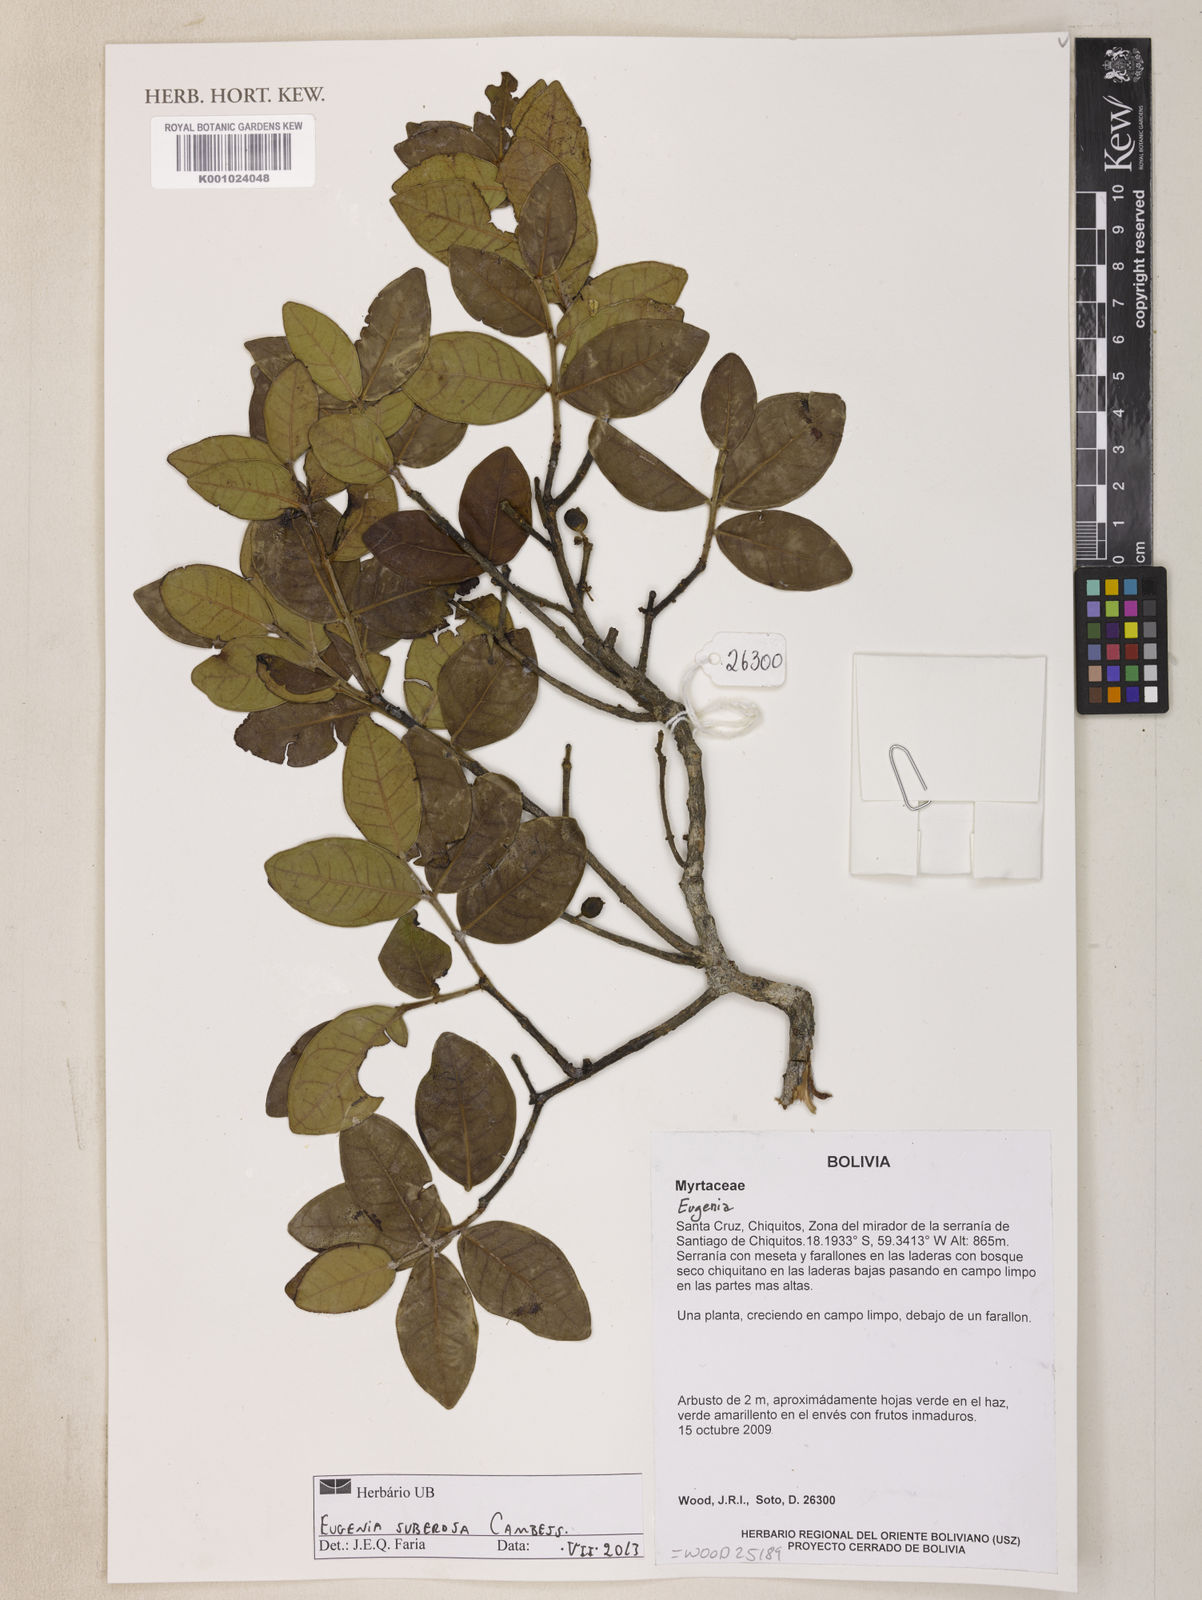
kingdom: Plantae
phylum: Tracheophyta
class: Magnoliopsida
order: Myrtales
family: Myrtaceae
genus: Eugenia
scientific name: Eugenia suberosa
